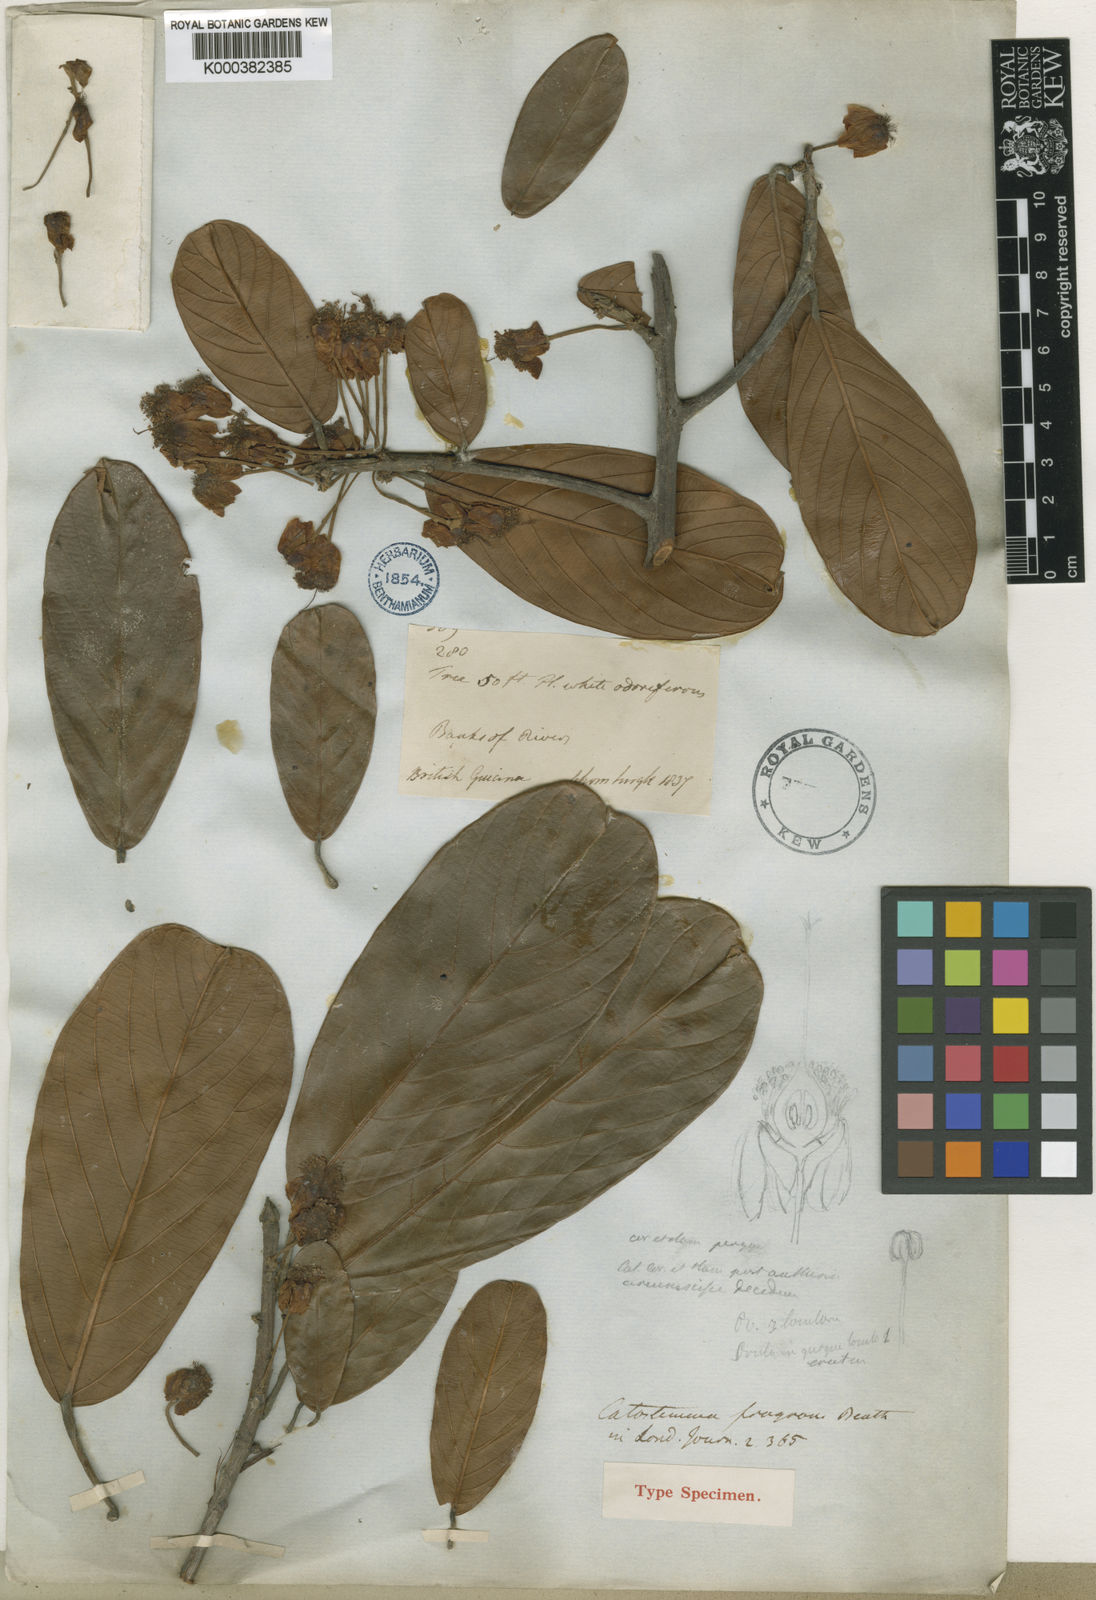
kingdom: Plantae
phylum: Tracheophyta
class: Magnoliopsida
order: Malvales
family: Malvaceae
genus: Catostemma
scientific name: Catostemma fragrans
